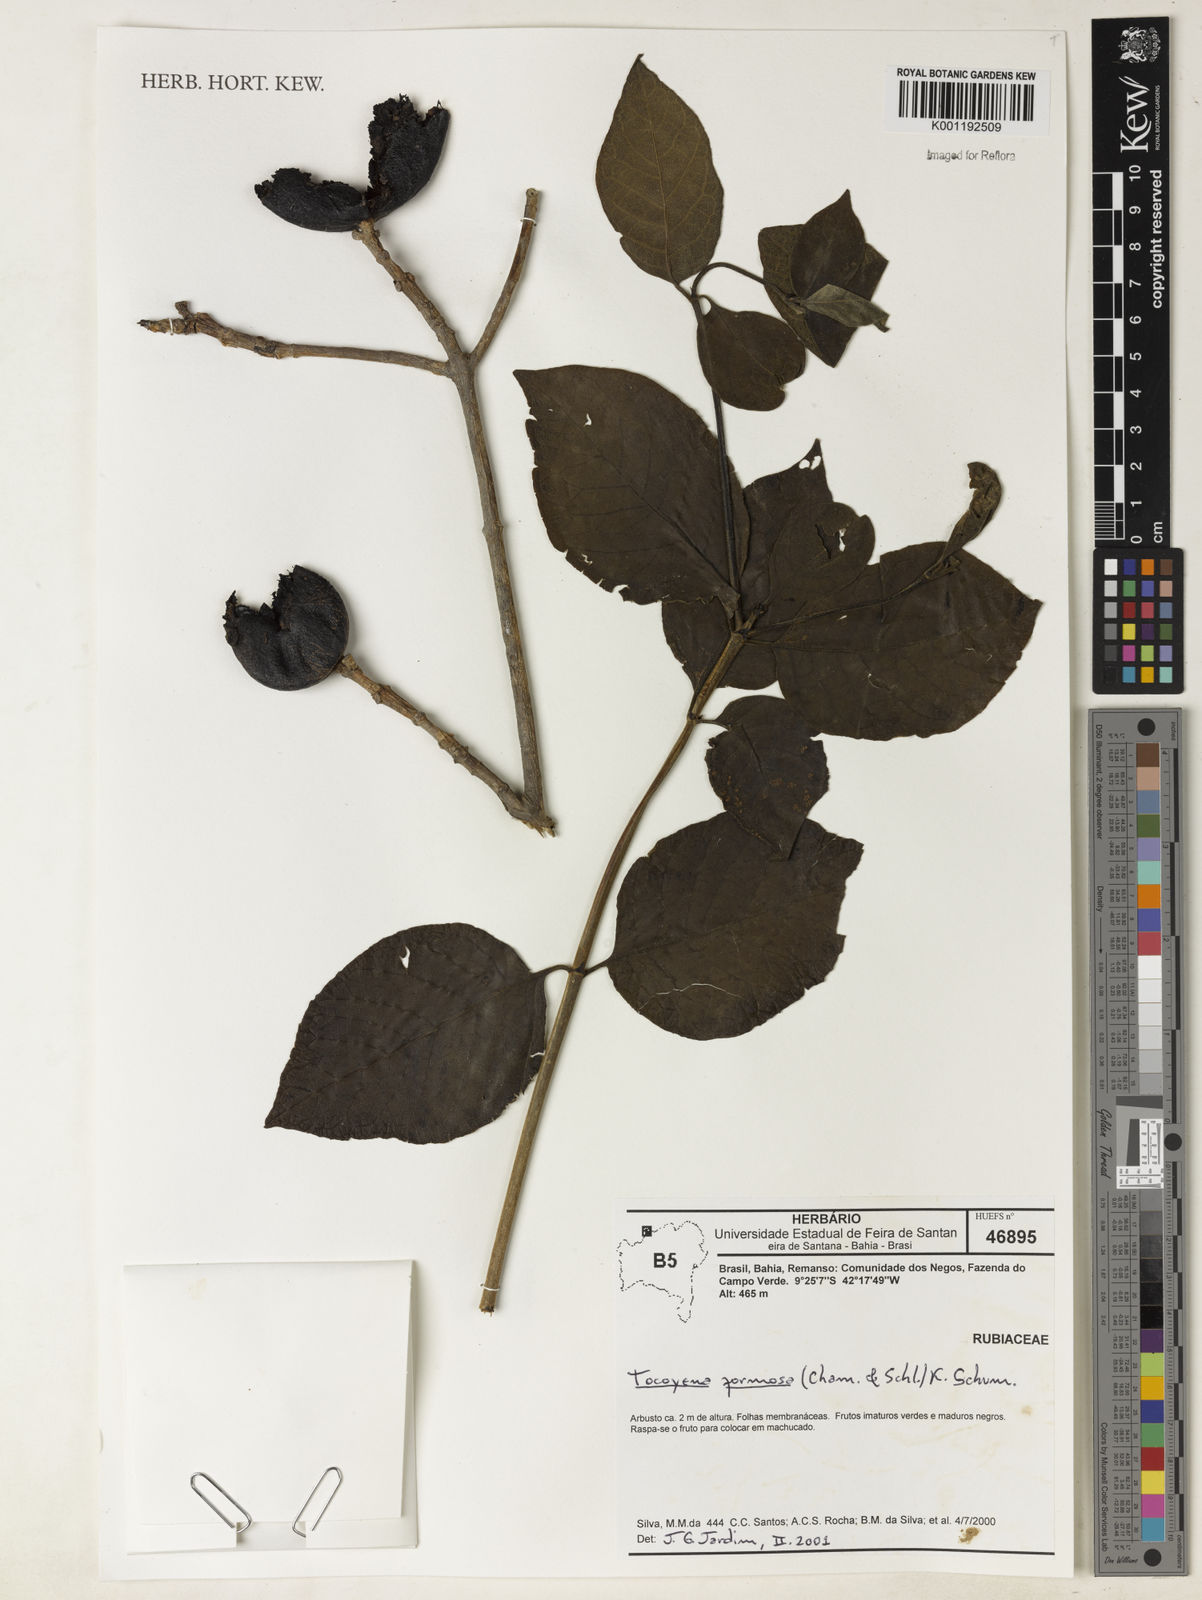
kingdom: Plantae
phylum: Tracheophyta
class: Magnoliopsida
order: Gentianales
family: Rubiaceae
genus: Tocoyena
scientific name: Tocoyena formosa
